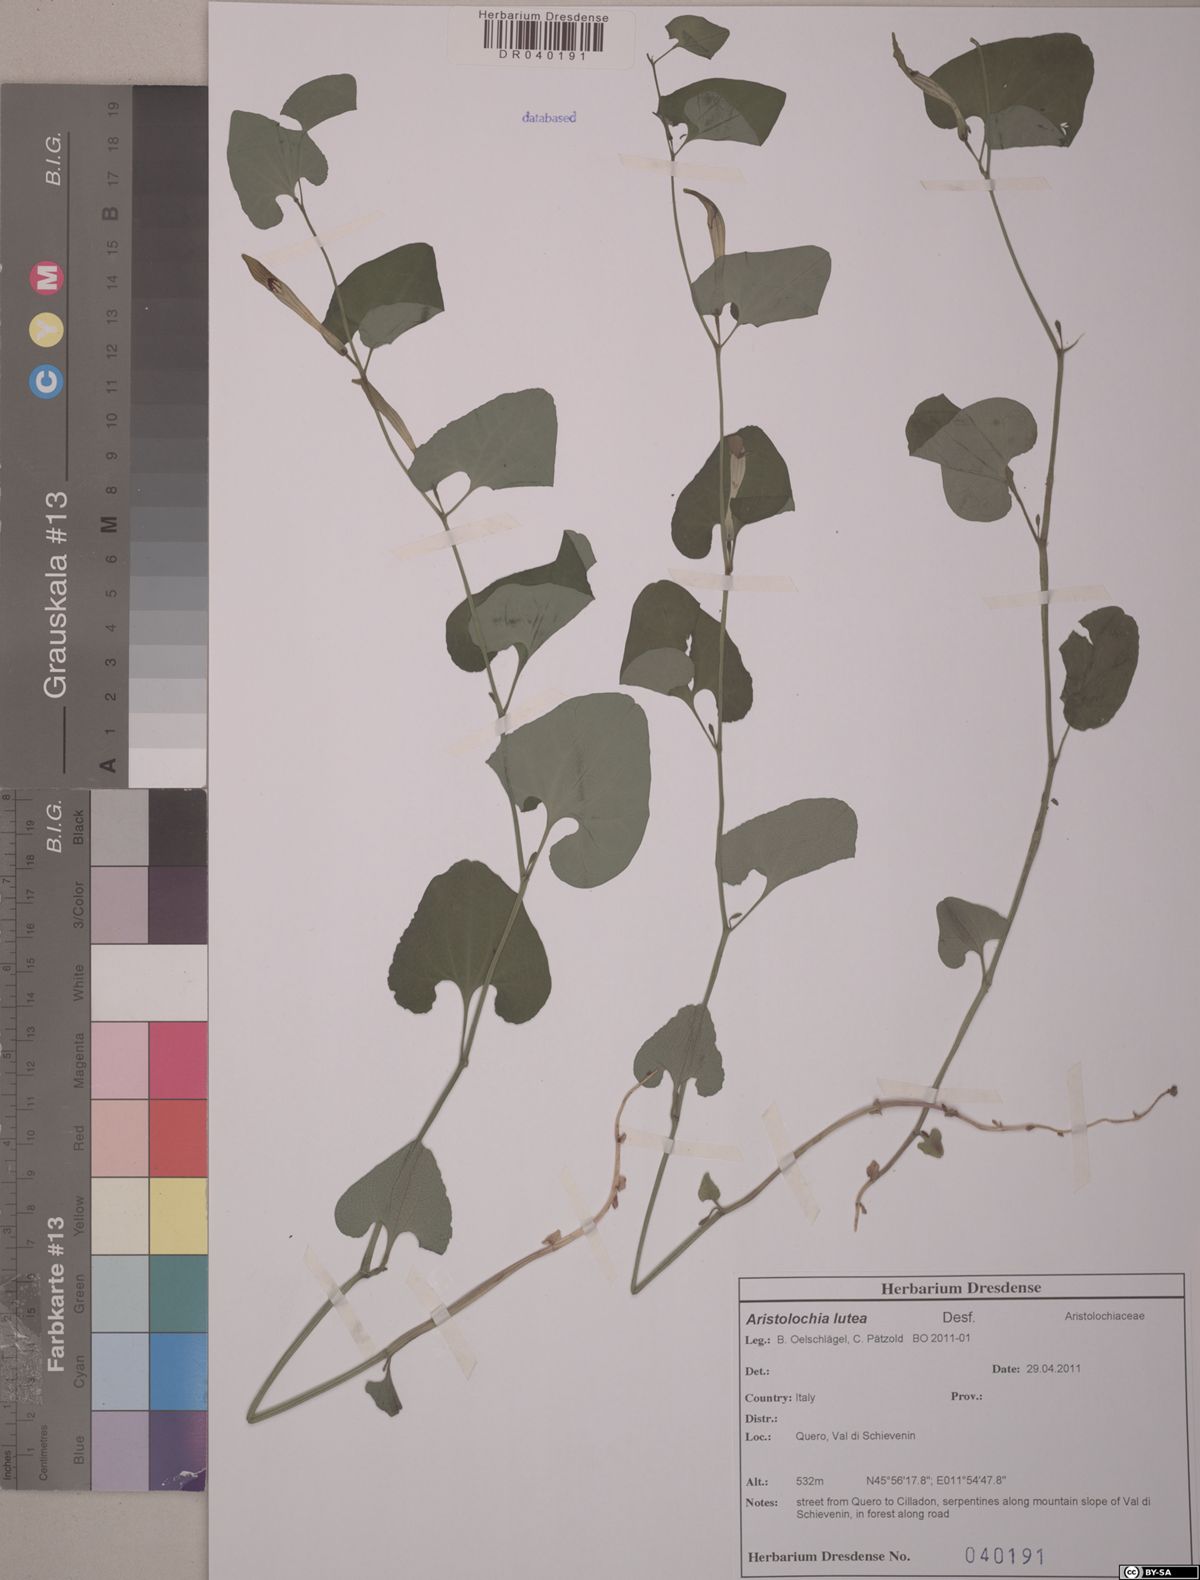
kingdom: Plantae
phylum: Tracheophyta
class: Magnoliopsida
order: Piperales
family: Aristolochiaceae
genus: Aristolochia
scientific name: Aristolochia lutea
